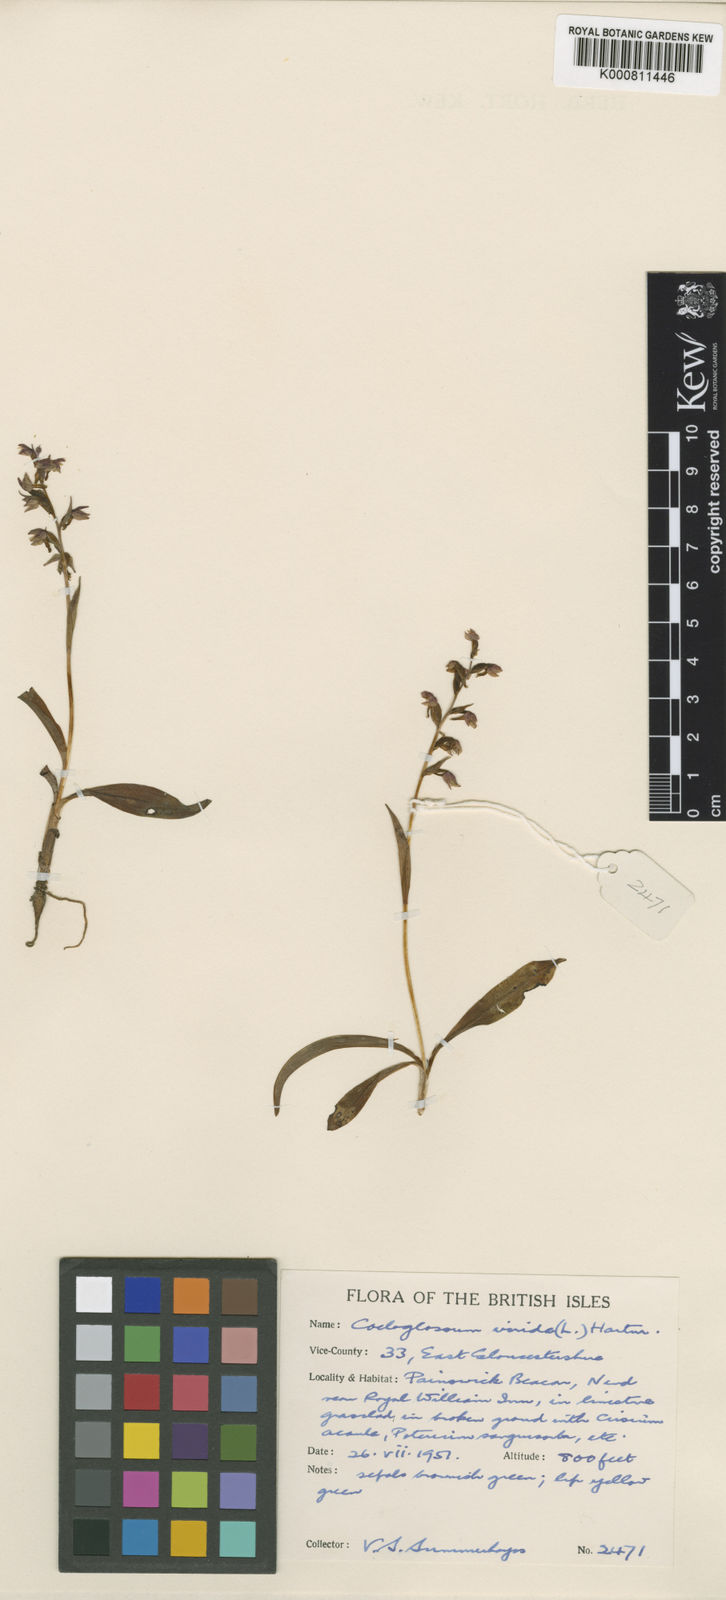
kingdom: Plantae
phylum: Tracheophyta
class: Liliopsida
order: Asparagales
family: Orchidaceae
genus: Dactylorhiza
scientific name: Dactylorhiza viridis
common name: Longbract frog orchid
